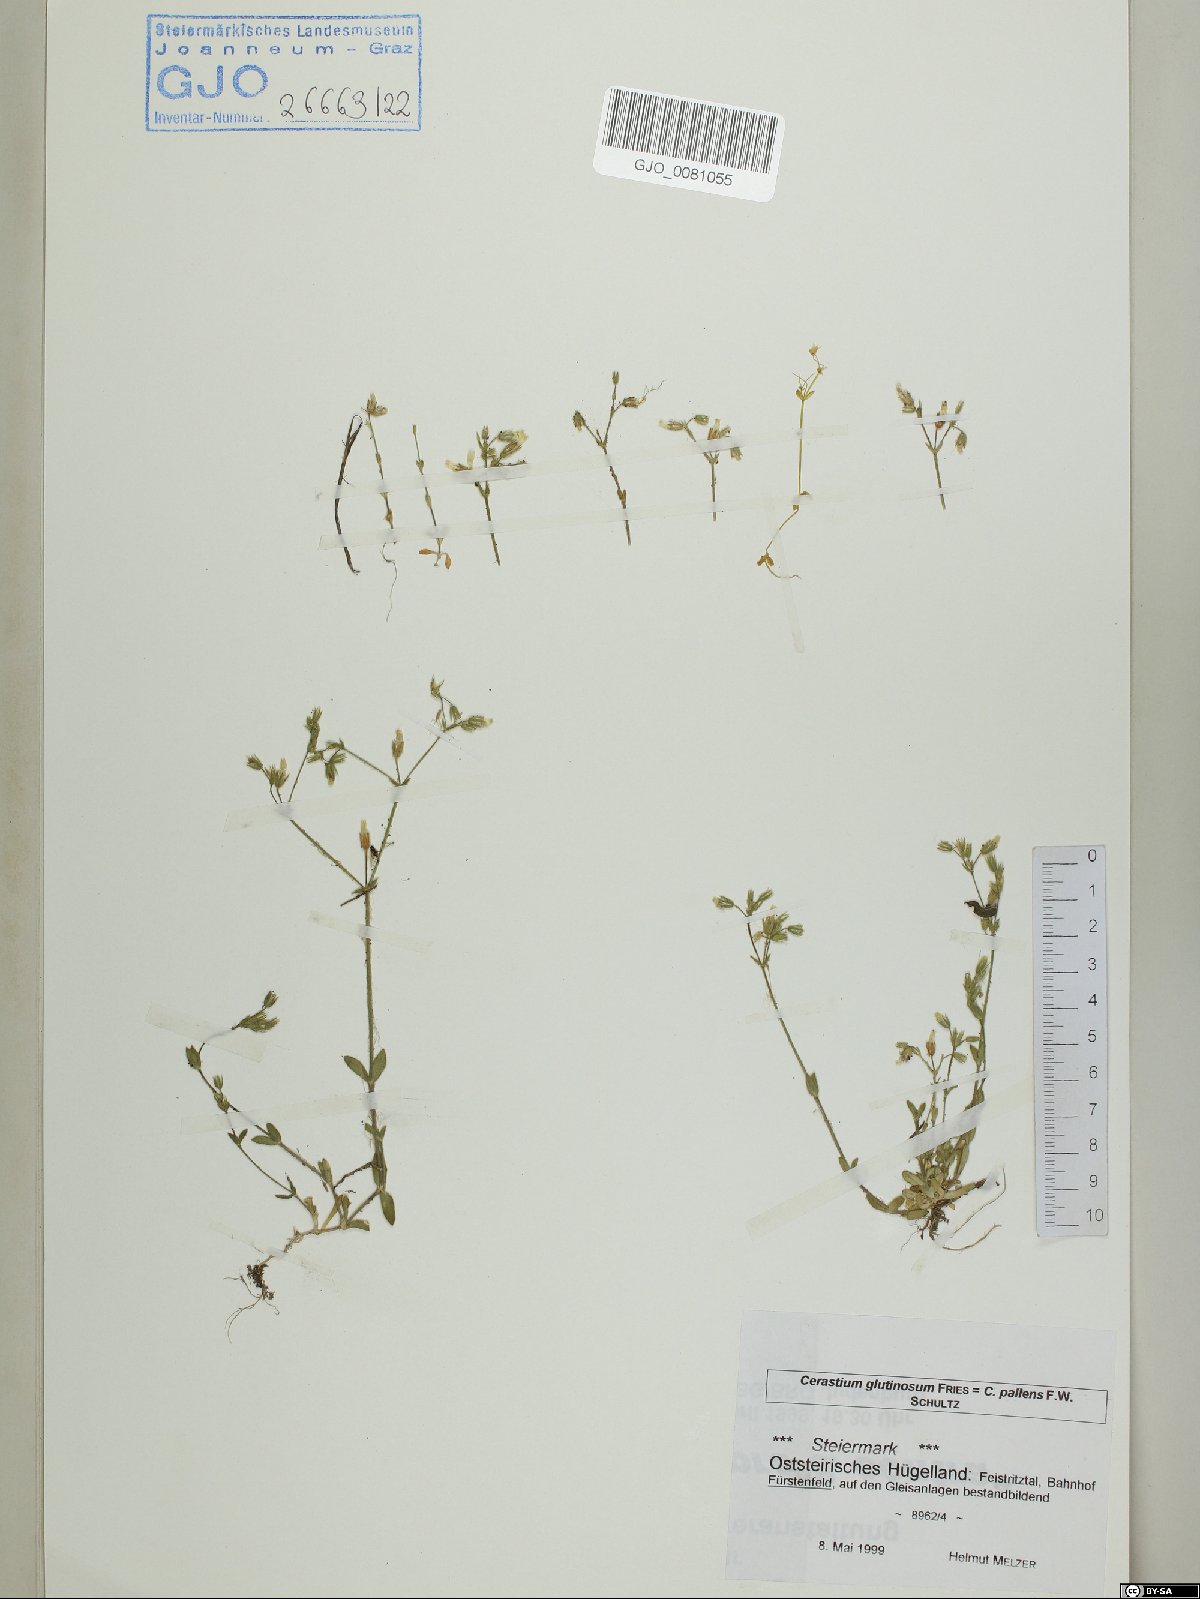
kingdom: Plantae
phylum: Tracheophyta
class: Magnoliopsida
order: Caryophyllales
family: Caryophyllaceae
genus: Cerastium
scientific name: Cerastium glutinosum
